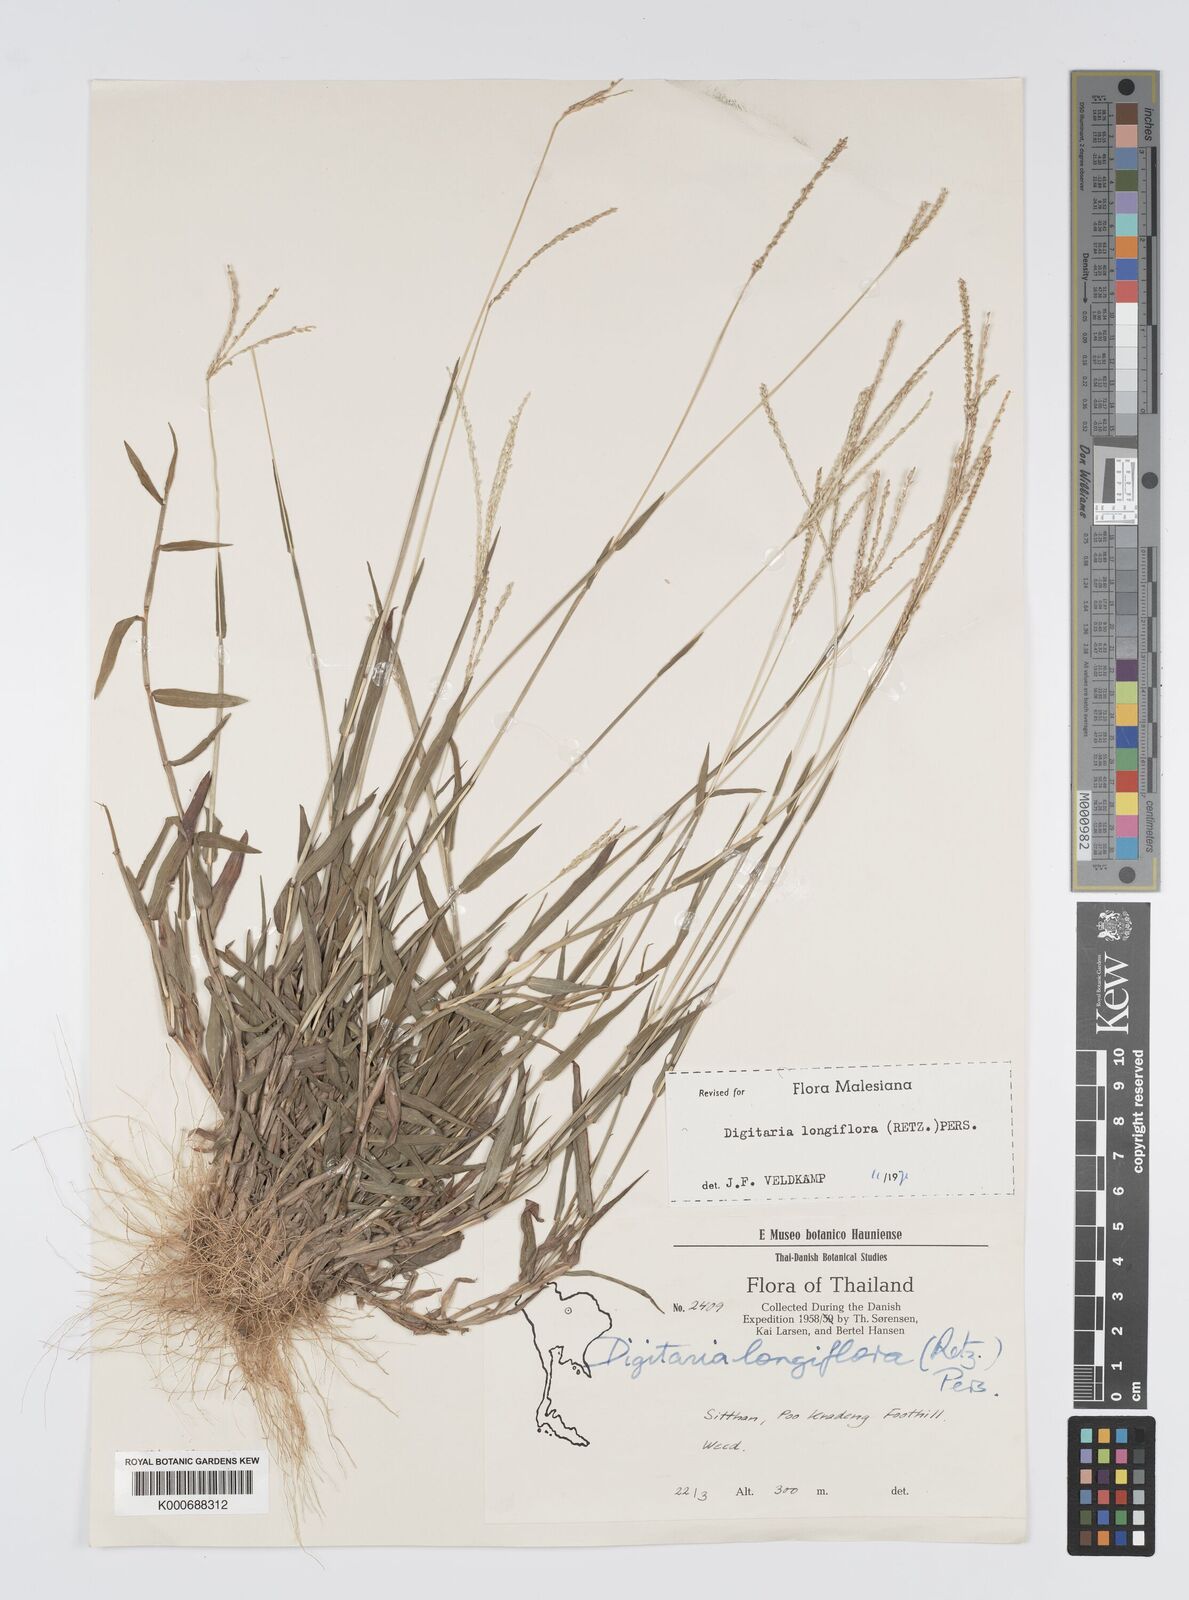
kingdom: Plantae
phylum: Tracheophyta
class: Liliopsida
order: Poales
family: Poaceae
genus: Digitaria
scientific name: Digitaria longiflora
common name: Wire crabgrass
